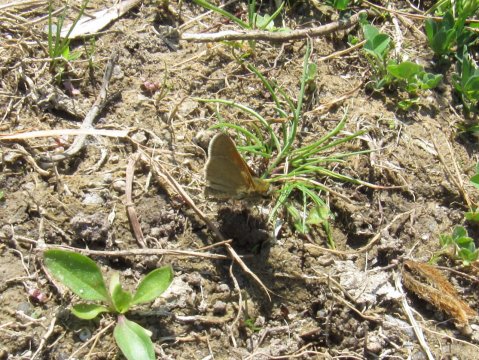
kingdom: Animalia
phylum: Arthropoda
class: Insecta
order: Lepidoptera
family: Hesperiidae
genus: Polites
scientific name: Polites themistocles
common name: Tawny-edged Skipper
